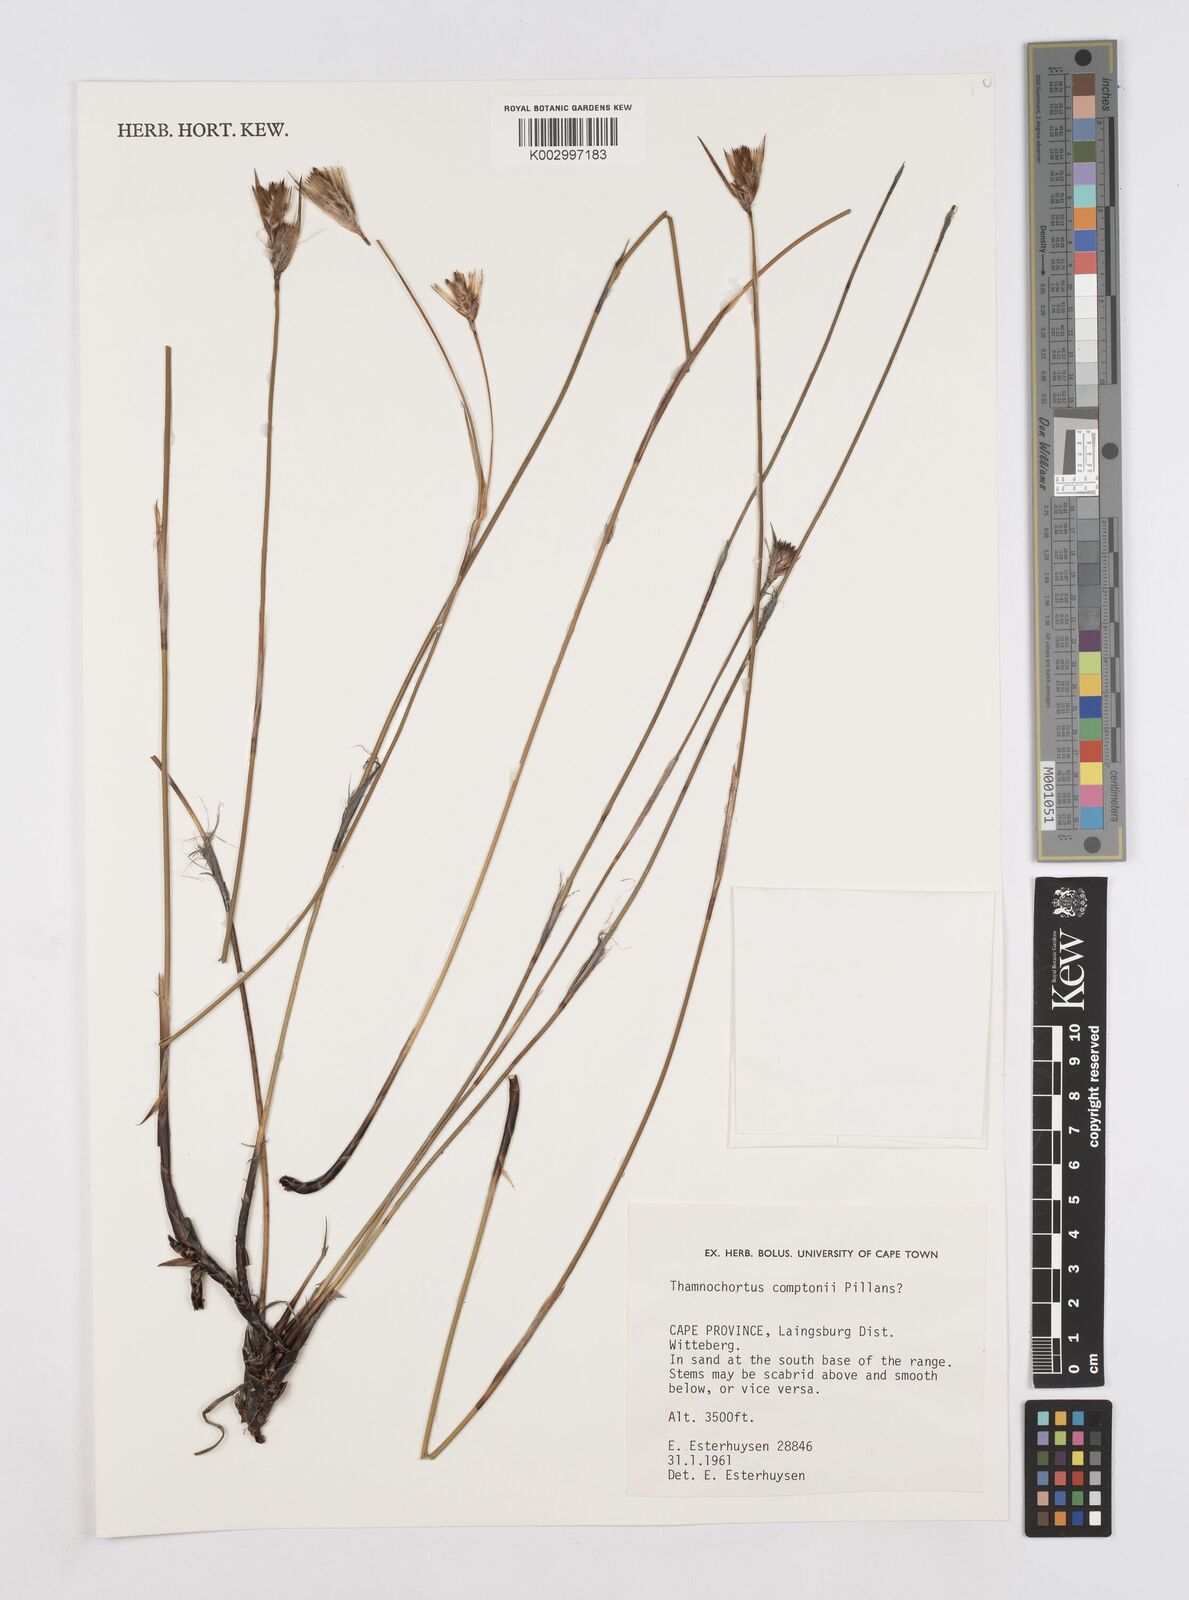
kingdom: Plantae
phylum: Tracheophyta
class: Liliopsida
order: Poales
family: Restionaceae
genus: Thamnochortus
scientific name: Thamnochortus platypteris
